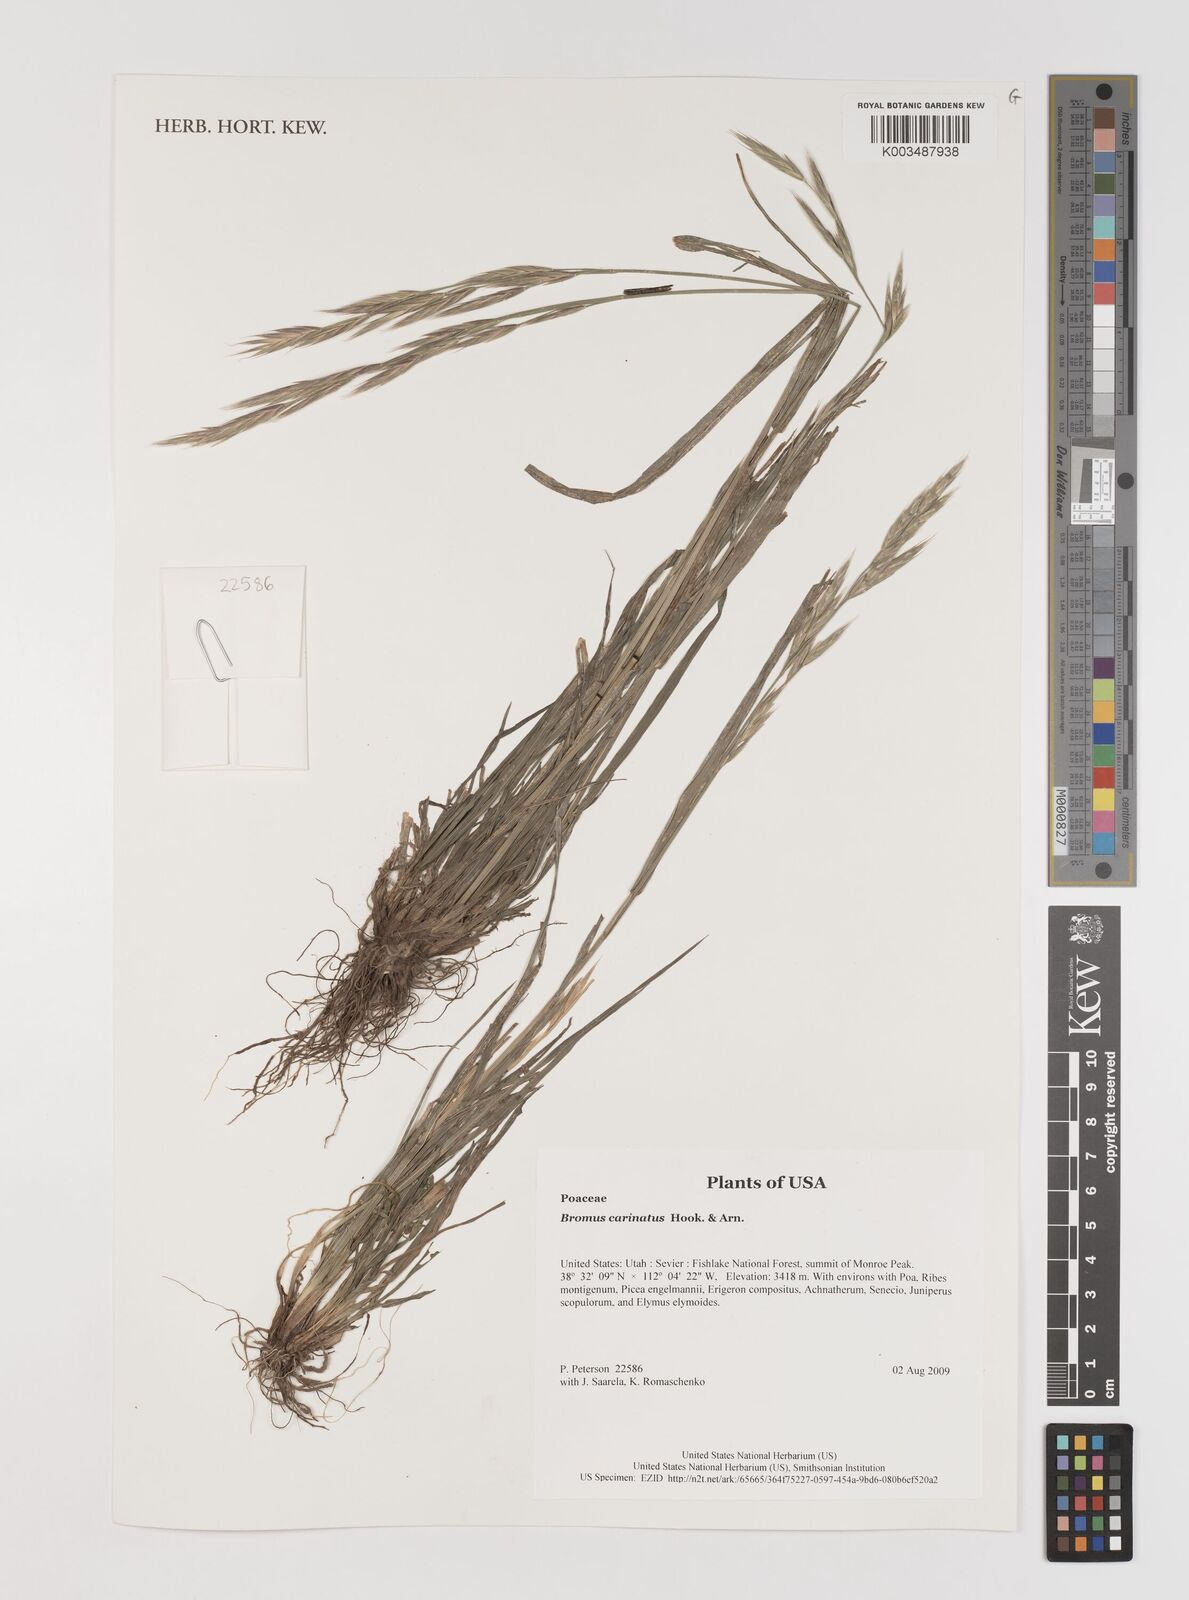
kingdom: Plantae
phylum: Tracheophyta
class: Liliopsida
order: Poales
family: Poaceae
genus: Bromus
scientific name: Bromus carinatus
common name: Mountain brome
